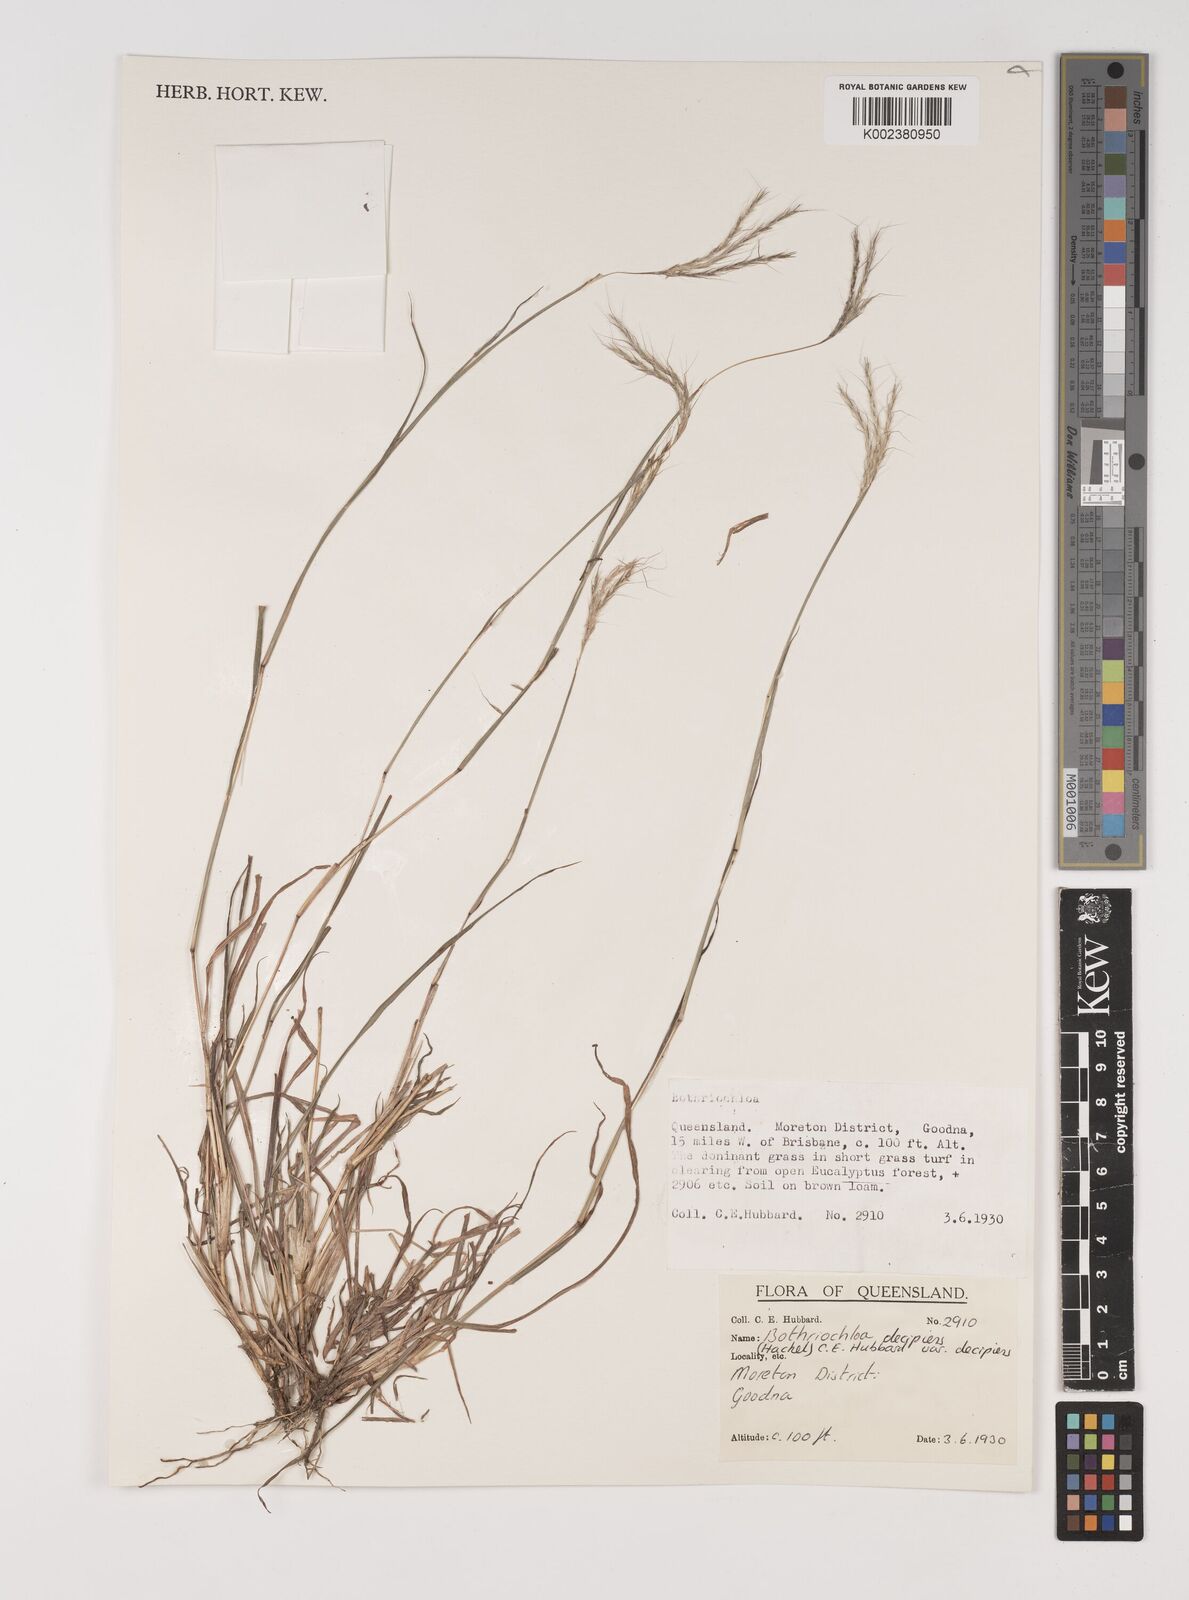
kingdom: Plantae
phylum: Tracheophyta
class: Liliopsida
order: Poales
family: Poaceae
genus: Bothriochloa
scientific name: Bothriochloa decipiens
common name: Pitted-bluegrass
